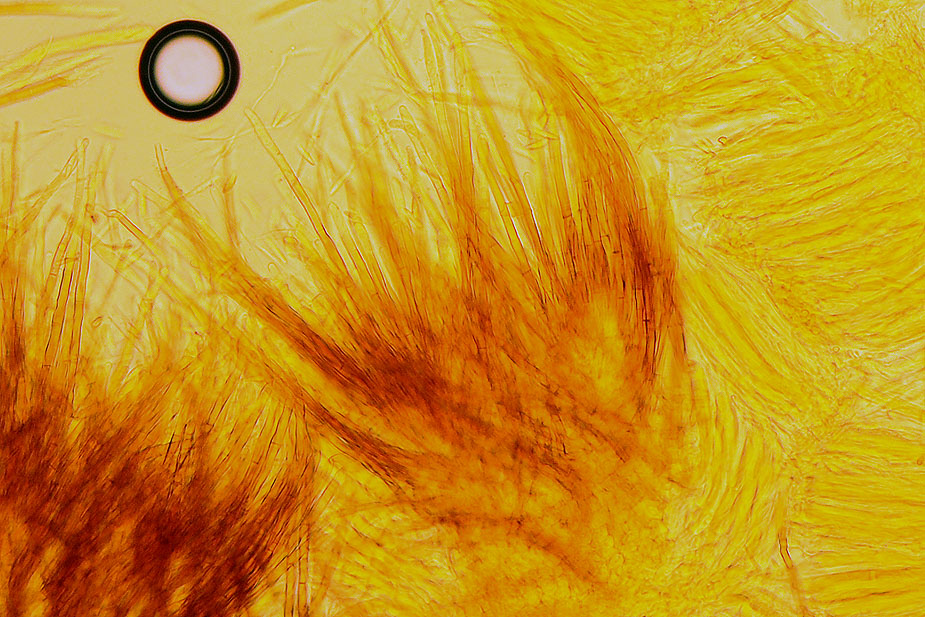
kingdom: Fungi
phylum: Ascomycota
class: Leotiomycetes
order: Helotiales
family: Solenopeziaceae
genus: Lasiobelonium
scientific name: Lasiobelonium variegatum
